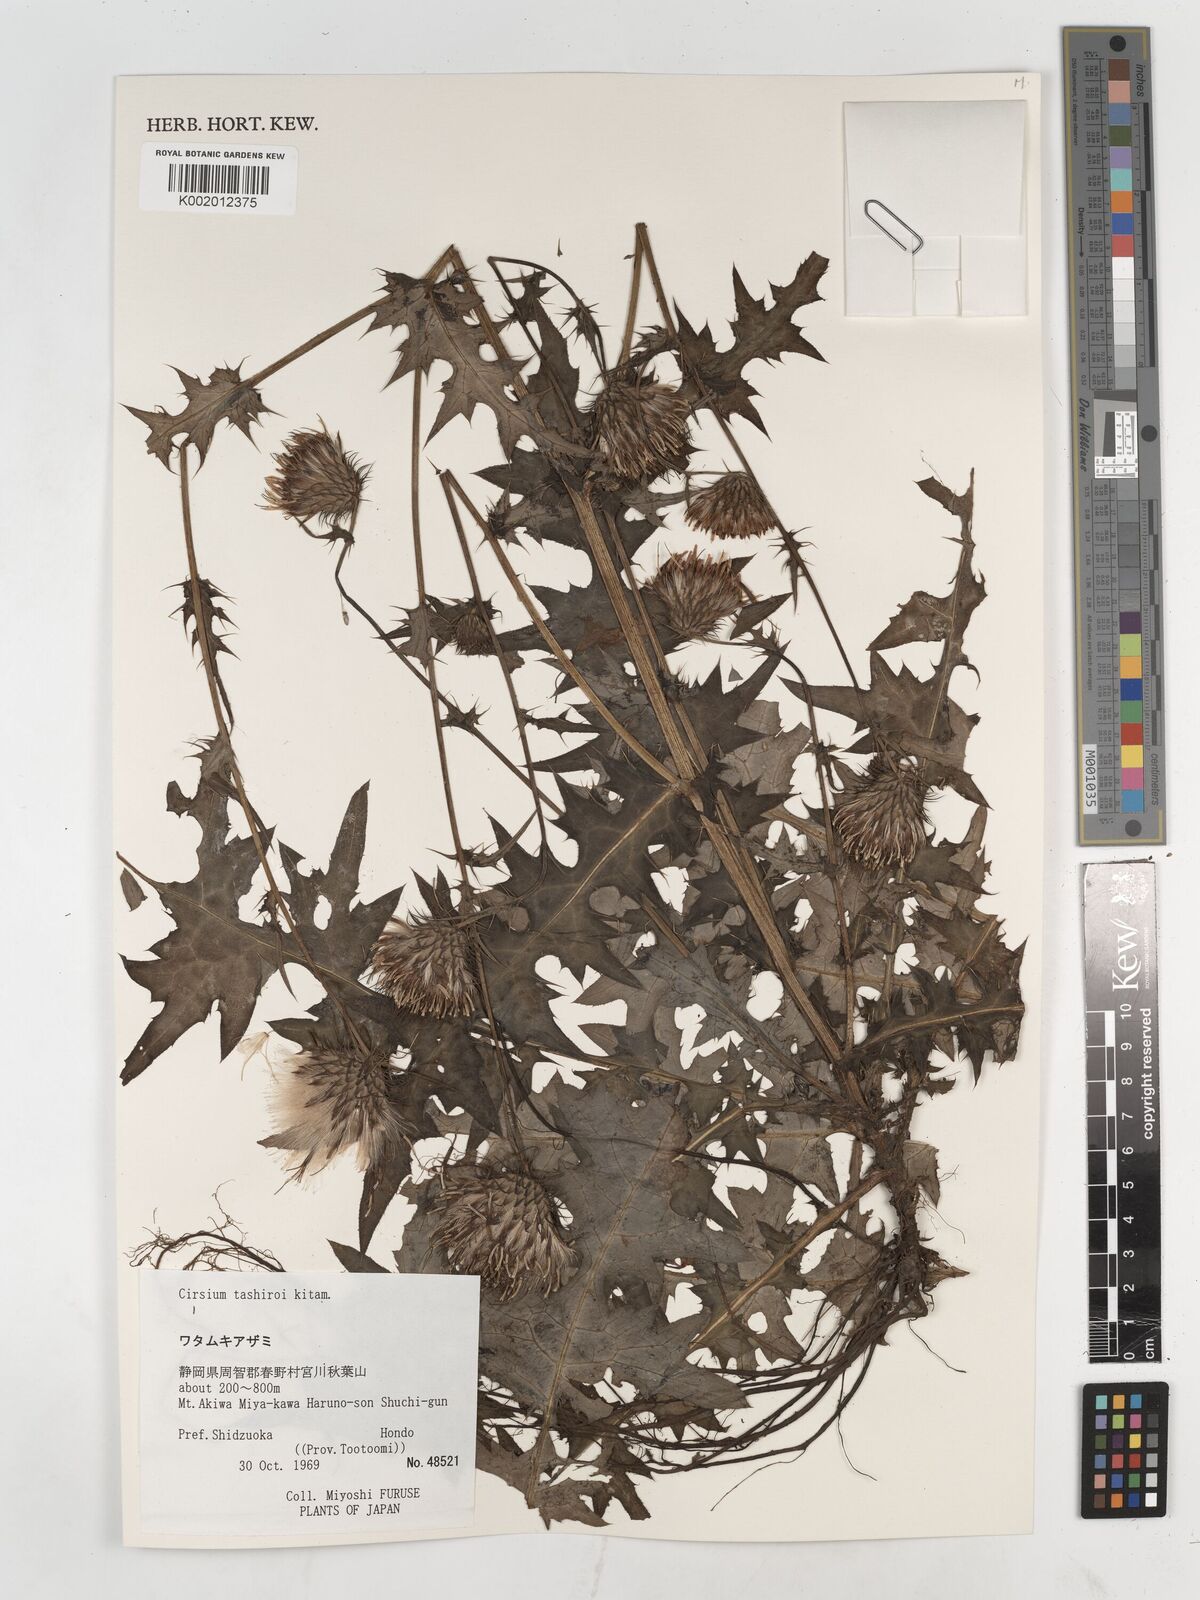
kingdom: Plantae
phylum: Tracheophyta
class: Magnoliopsida
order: Asterales
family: Asteraceae
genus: Cirsium
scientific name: Cirsium tashiroi
